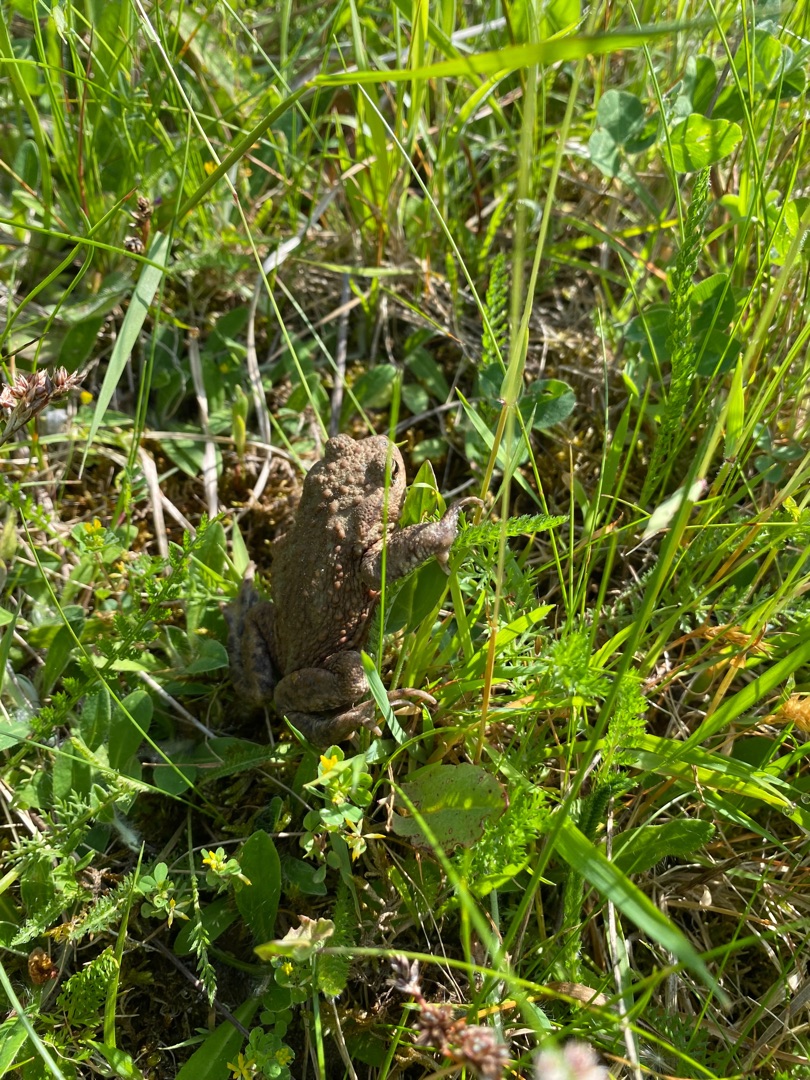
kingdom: Animalia
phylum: Chordata
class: Amphibia
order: Anura
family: Bufonidae
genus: Bufo
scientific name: Bufo bufo
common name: Skrubtudse
